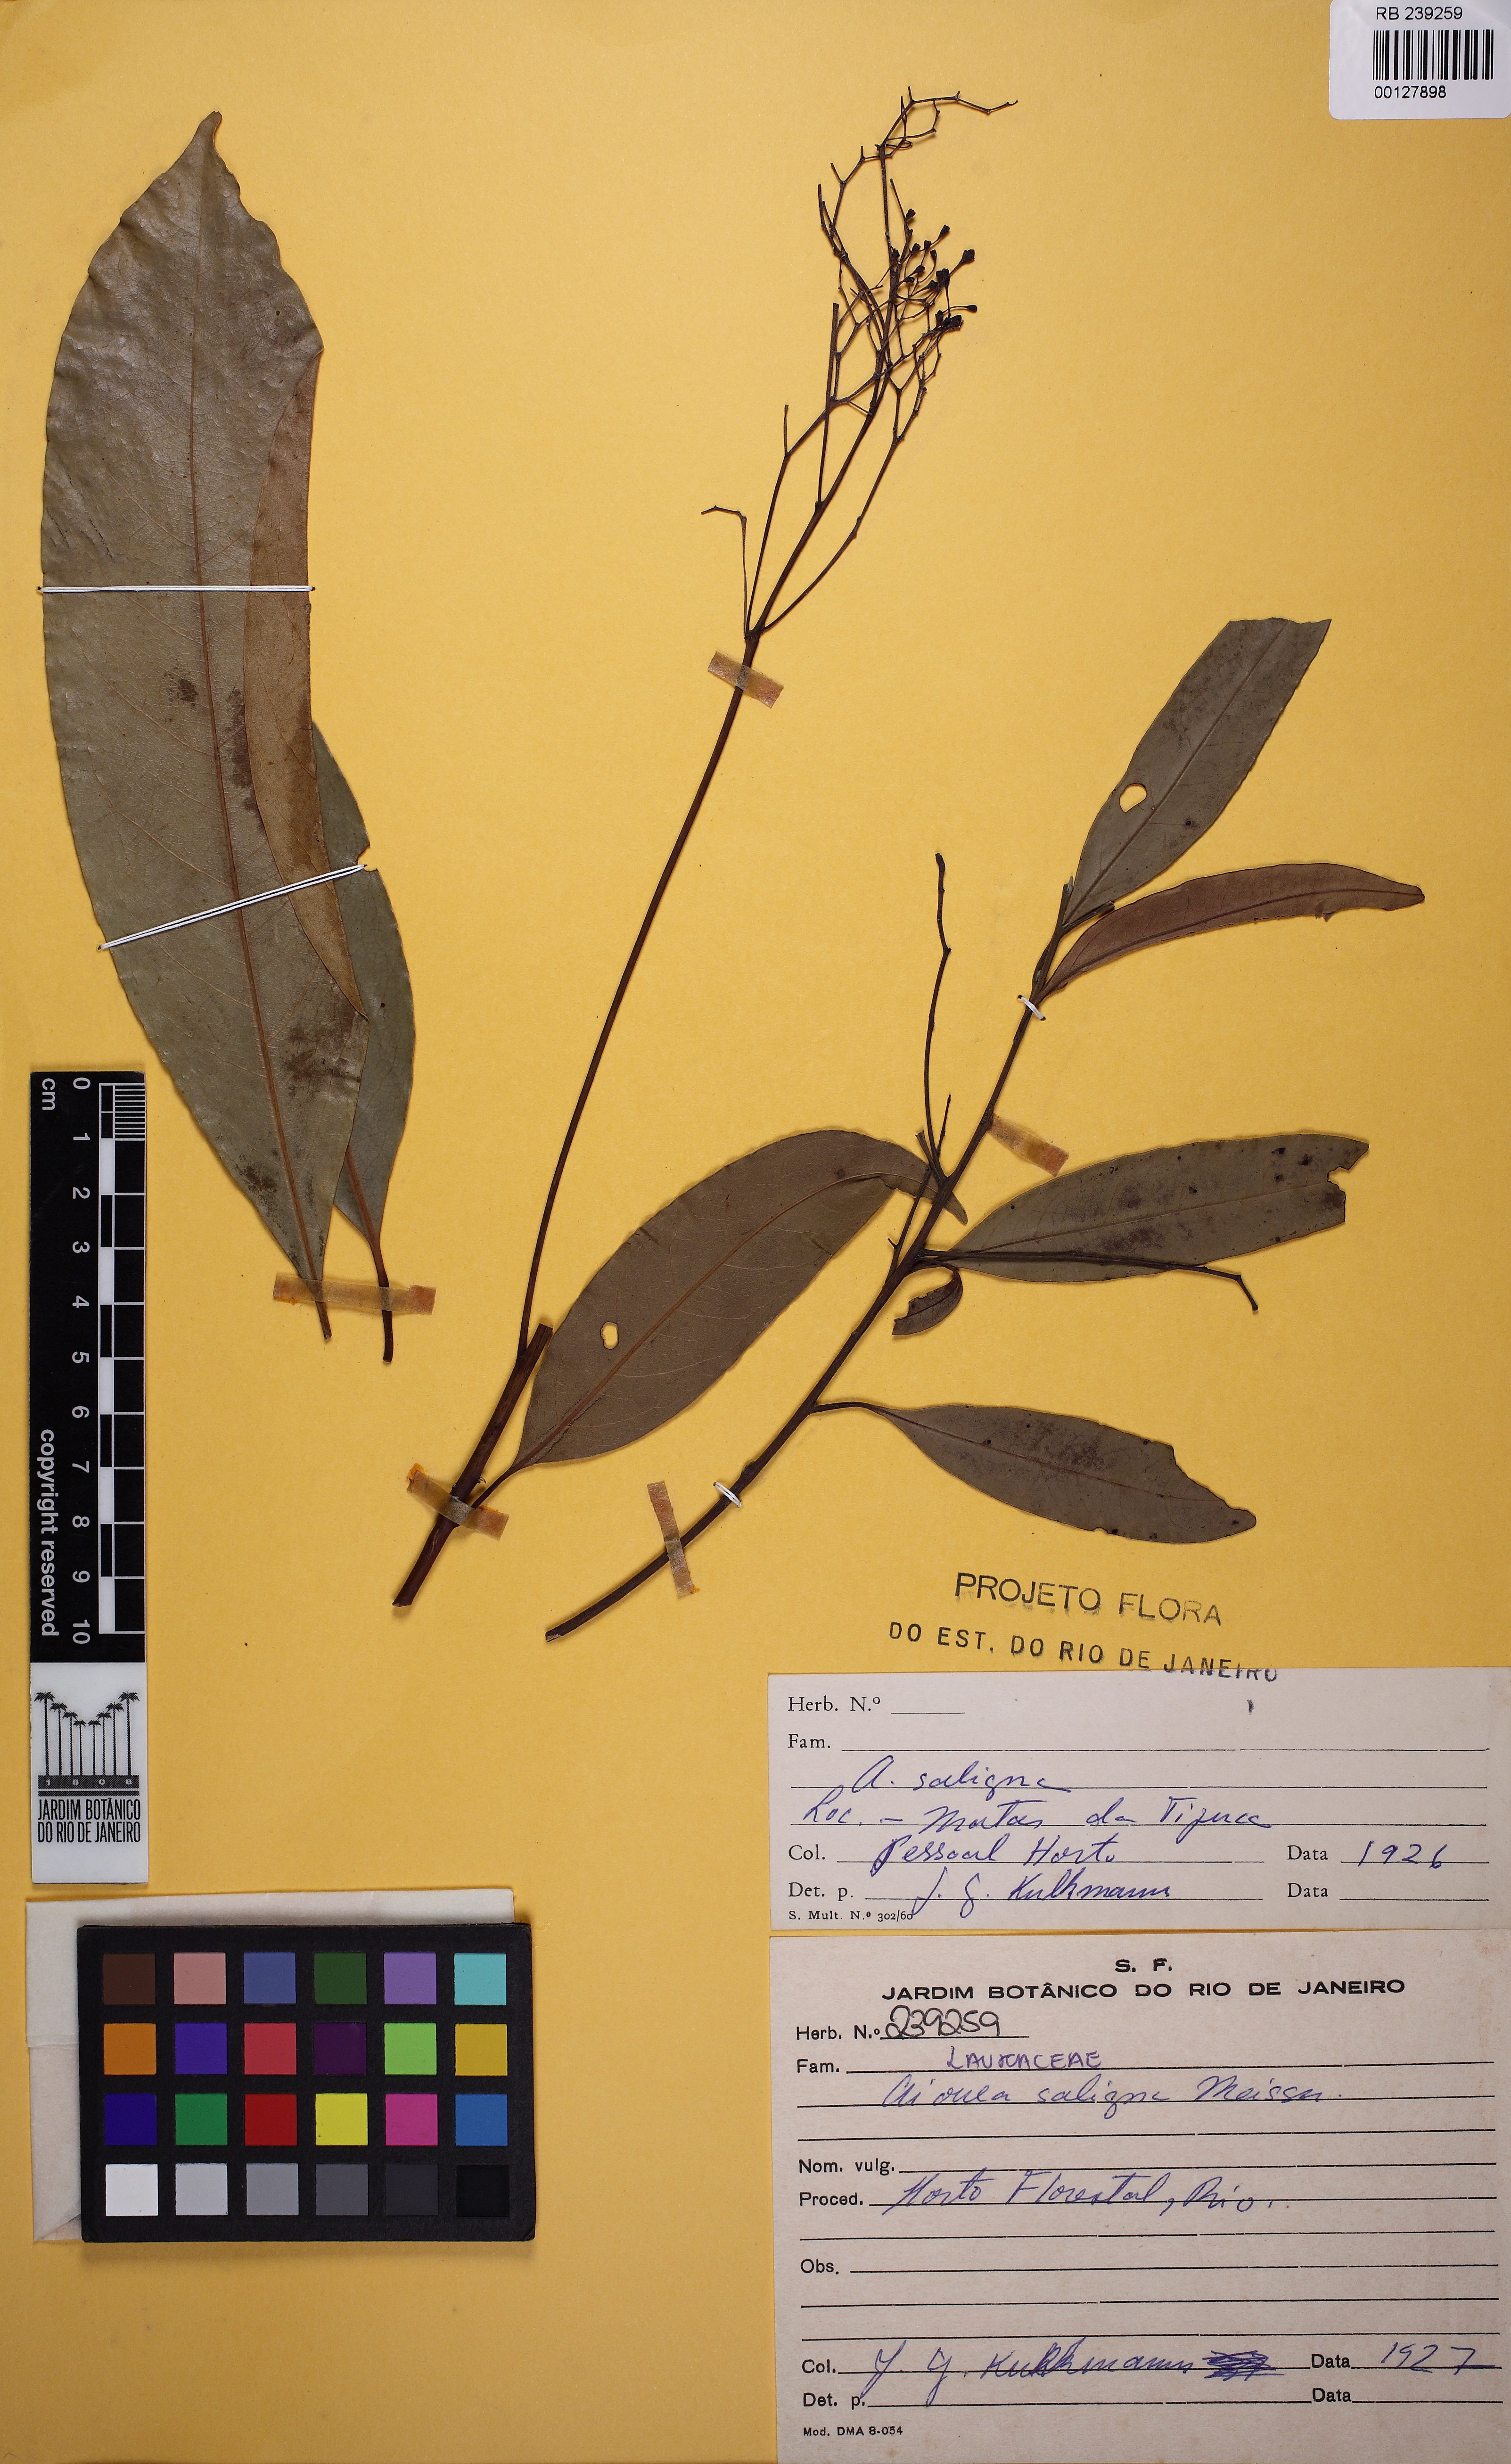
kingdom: Plantae
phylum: Tracheophyta
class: Magnoliopsida
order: Laurales
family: Lauraceae
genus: Aiouea
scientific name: Aiouea saligna
